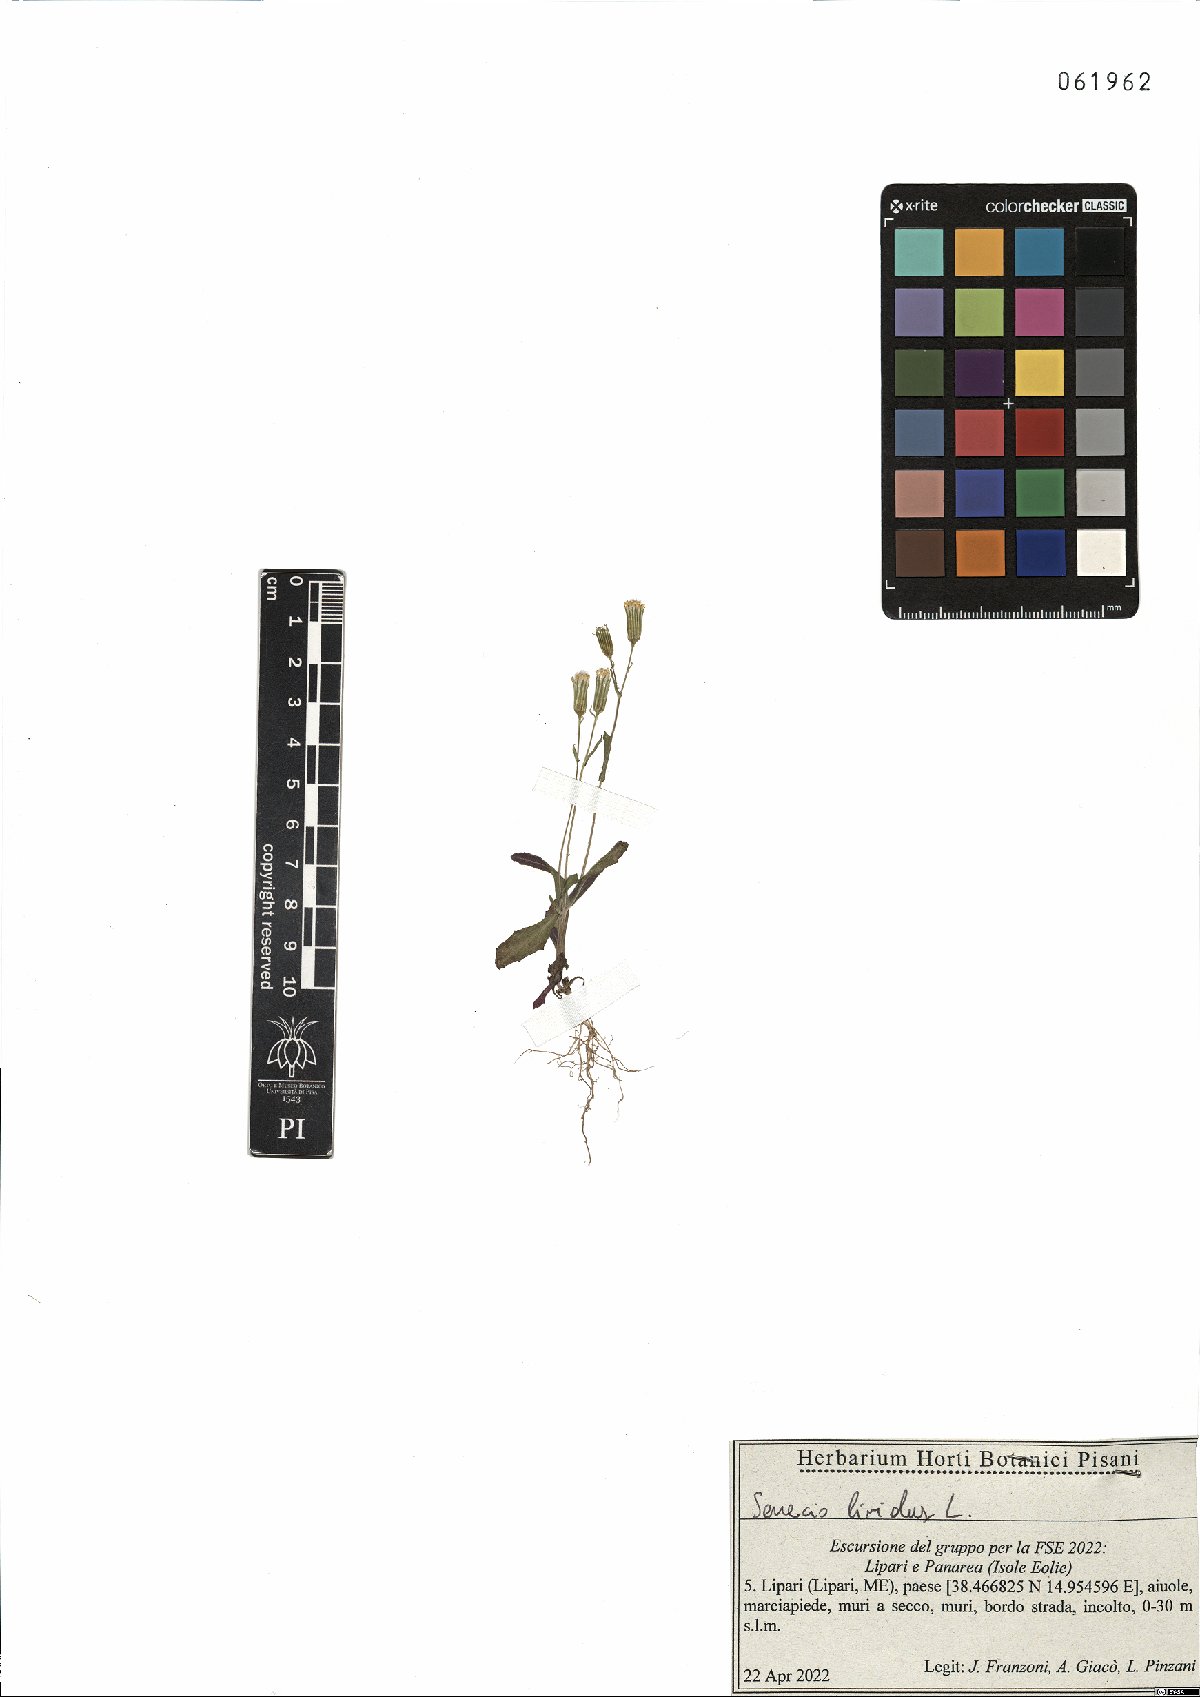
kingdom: Plantae
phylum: Tracheophyta
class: Magnoliopsida
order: Asterales
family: Asteraceae
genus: Senecio
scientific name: Senecio lividus
